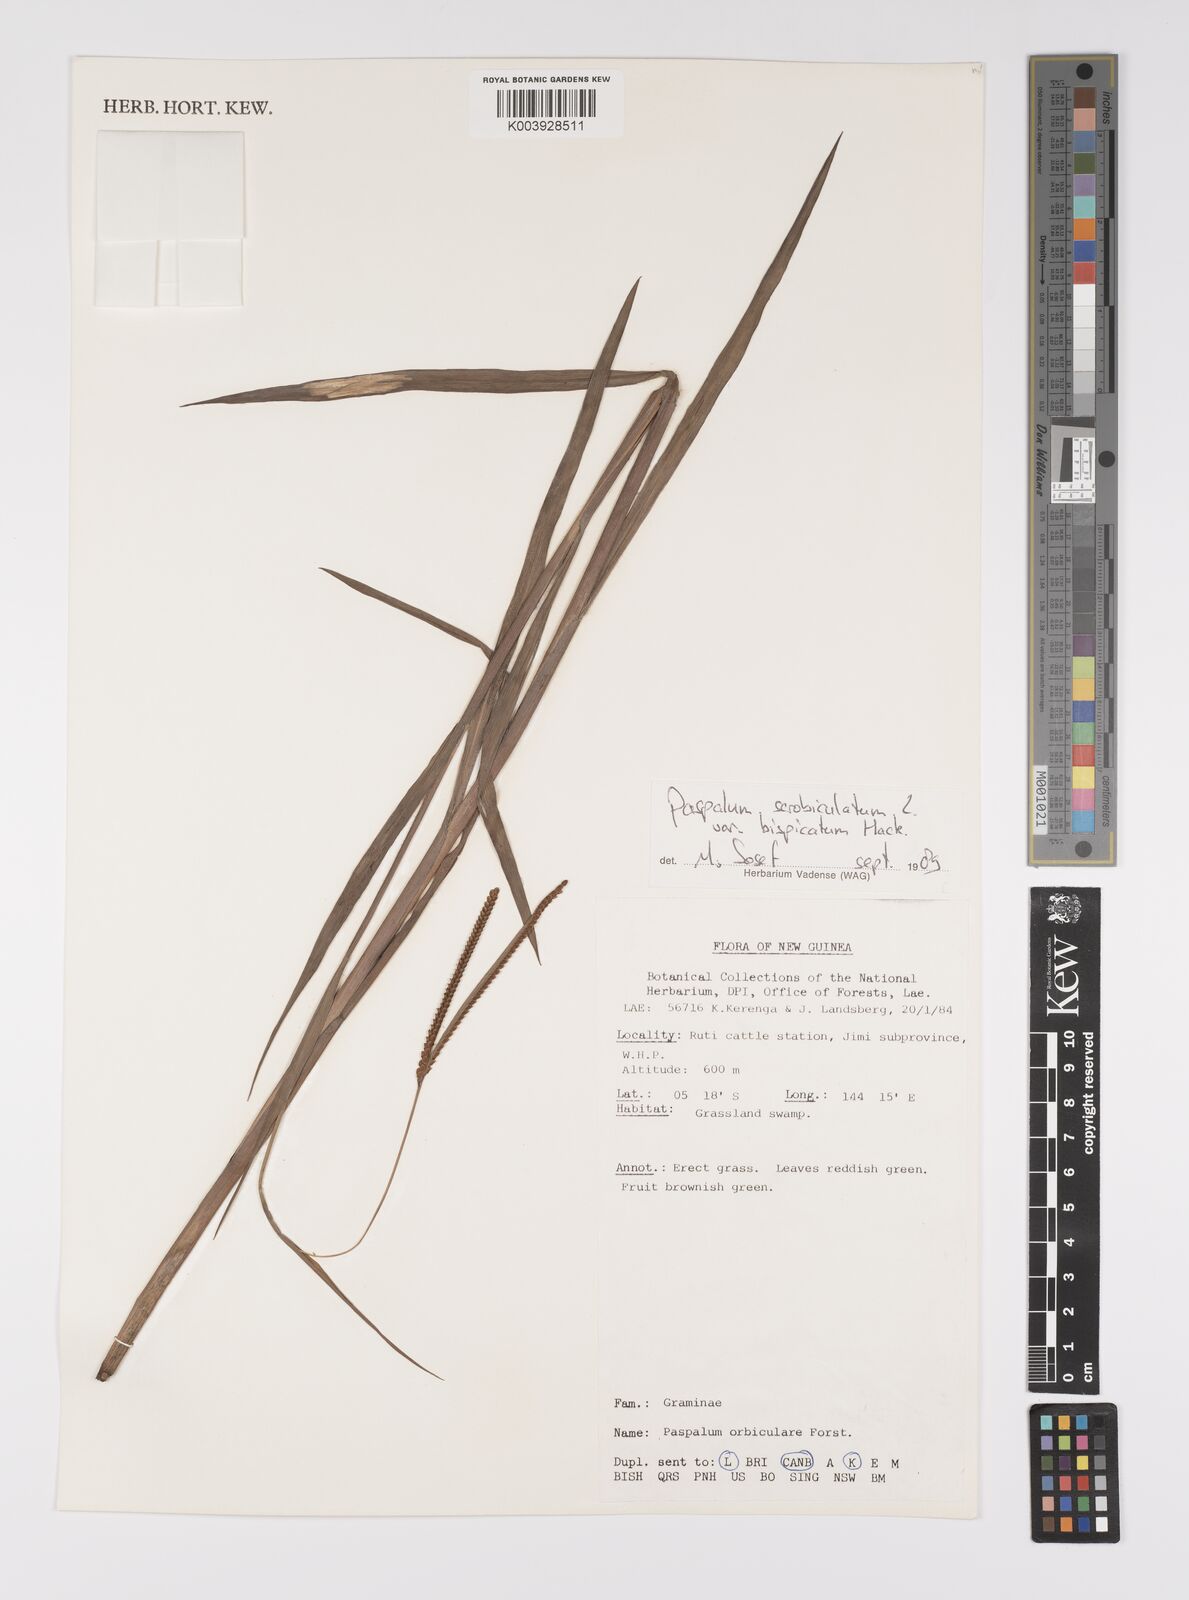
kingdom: Plantae
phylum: Tracheophyta
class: Liliopsida
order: Poales
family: Poaceae
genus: Paspalum
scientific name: Paspalum scrobiculatum
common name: Kodo millet
